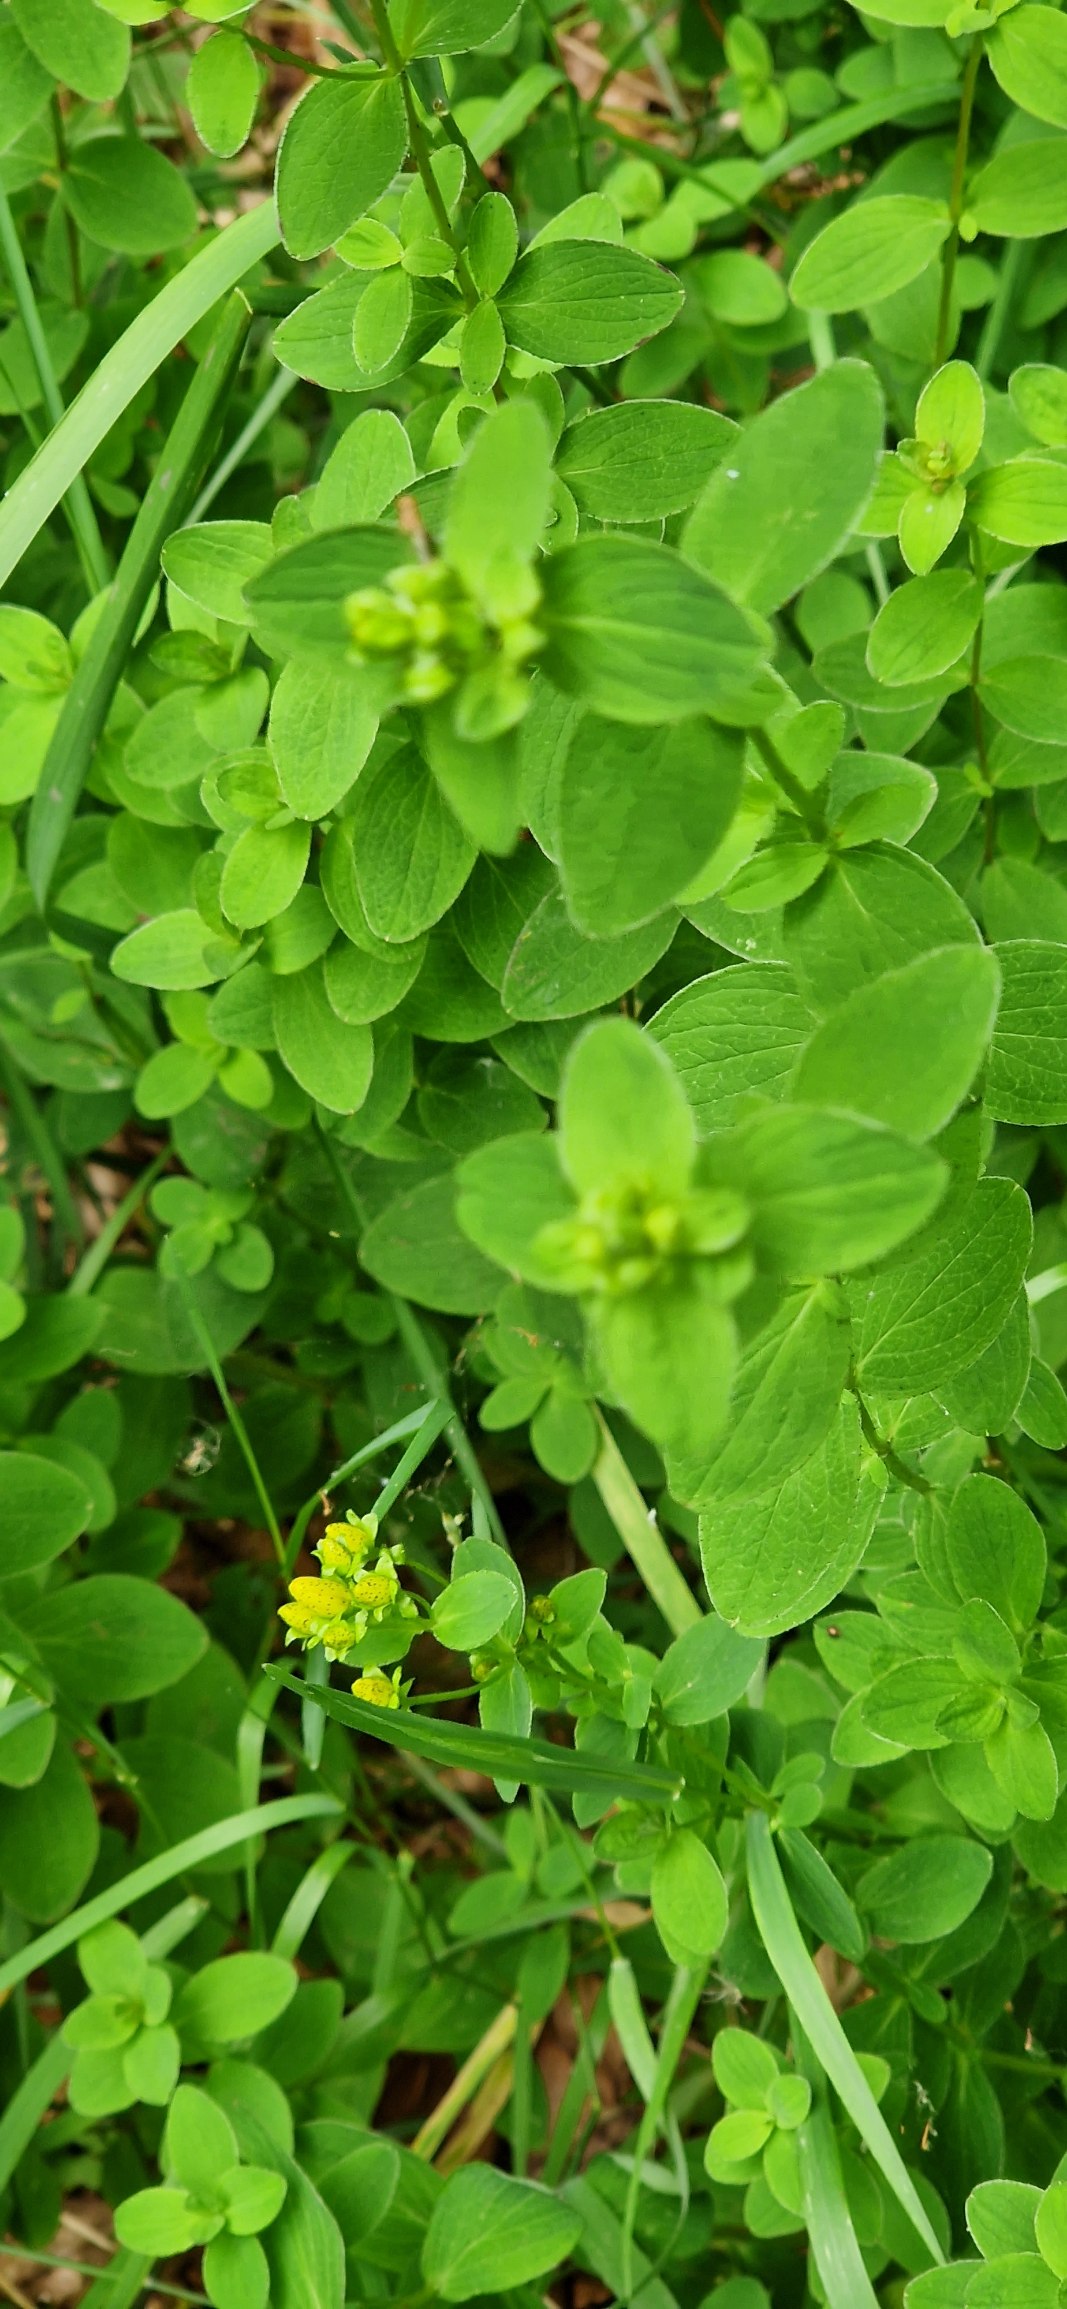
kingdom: Plantae
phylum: Tracheophyta
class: Magnoliopsida
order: Malpighiales
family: Hypericaceae
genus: Hypericum
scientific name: Hypericum maculatum
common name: Kantet perikon
